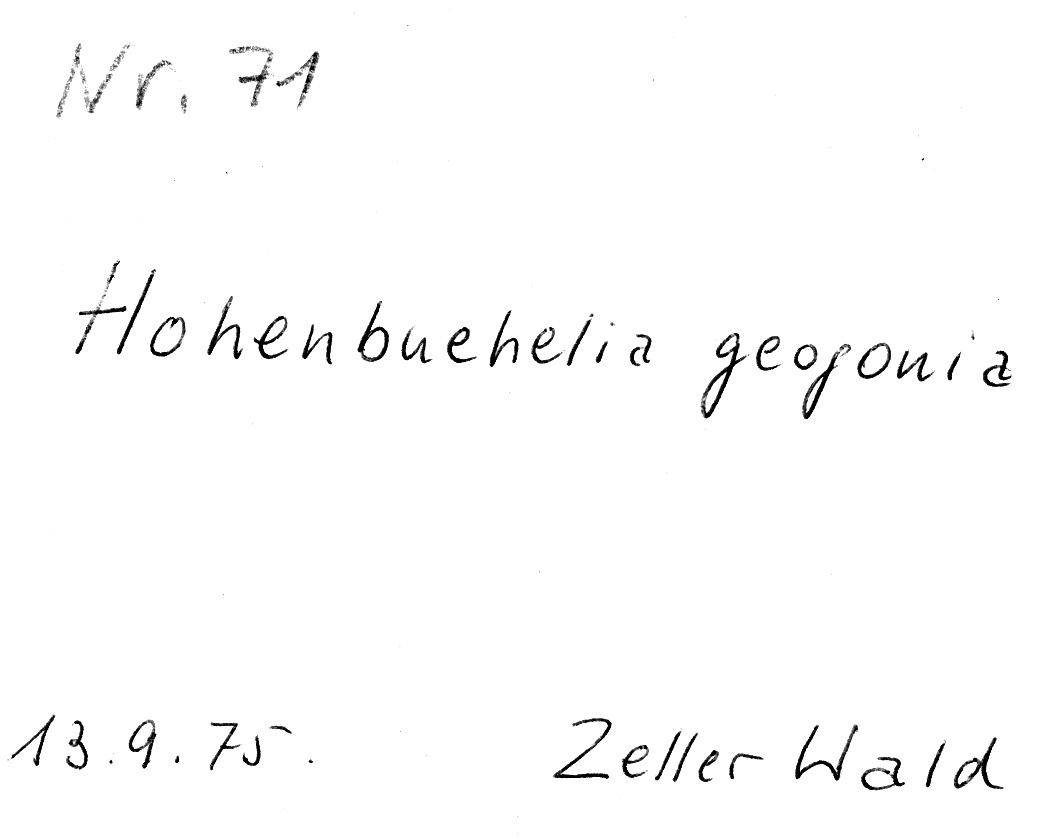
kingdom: Fungi
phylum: Basidiomycota
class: Agaricomycetes
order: Agaricales
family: Pleurotaceae
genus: Hohenbuehelia
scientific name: Hohenbuehelia tremula
